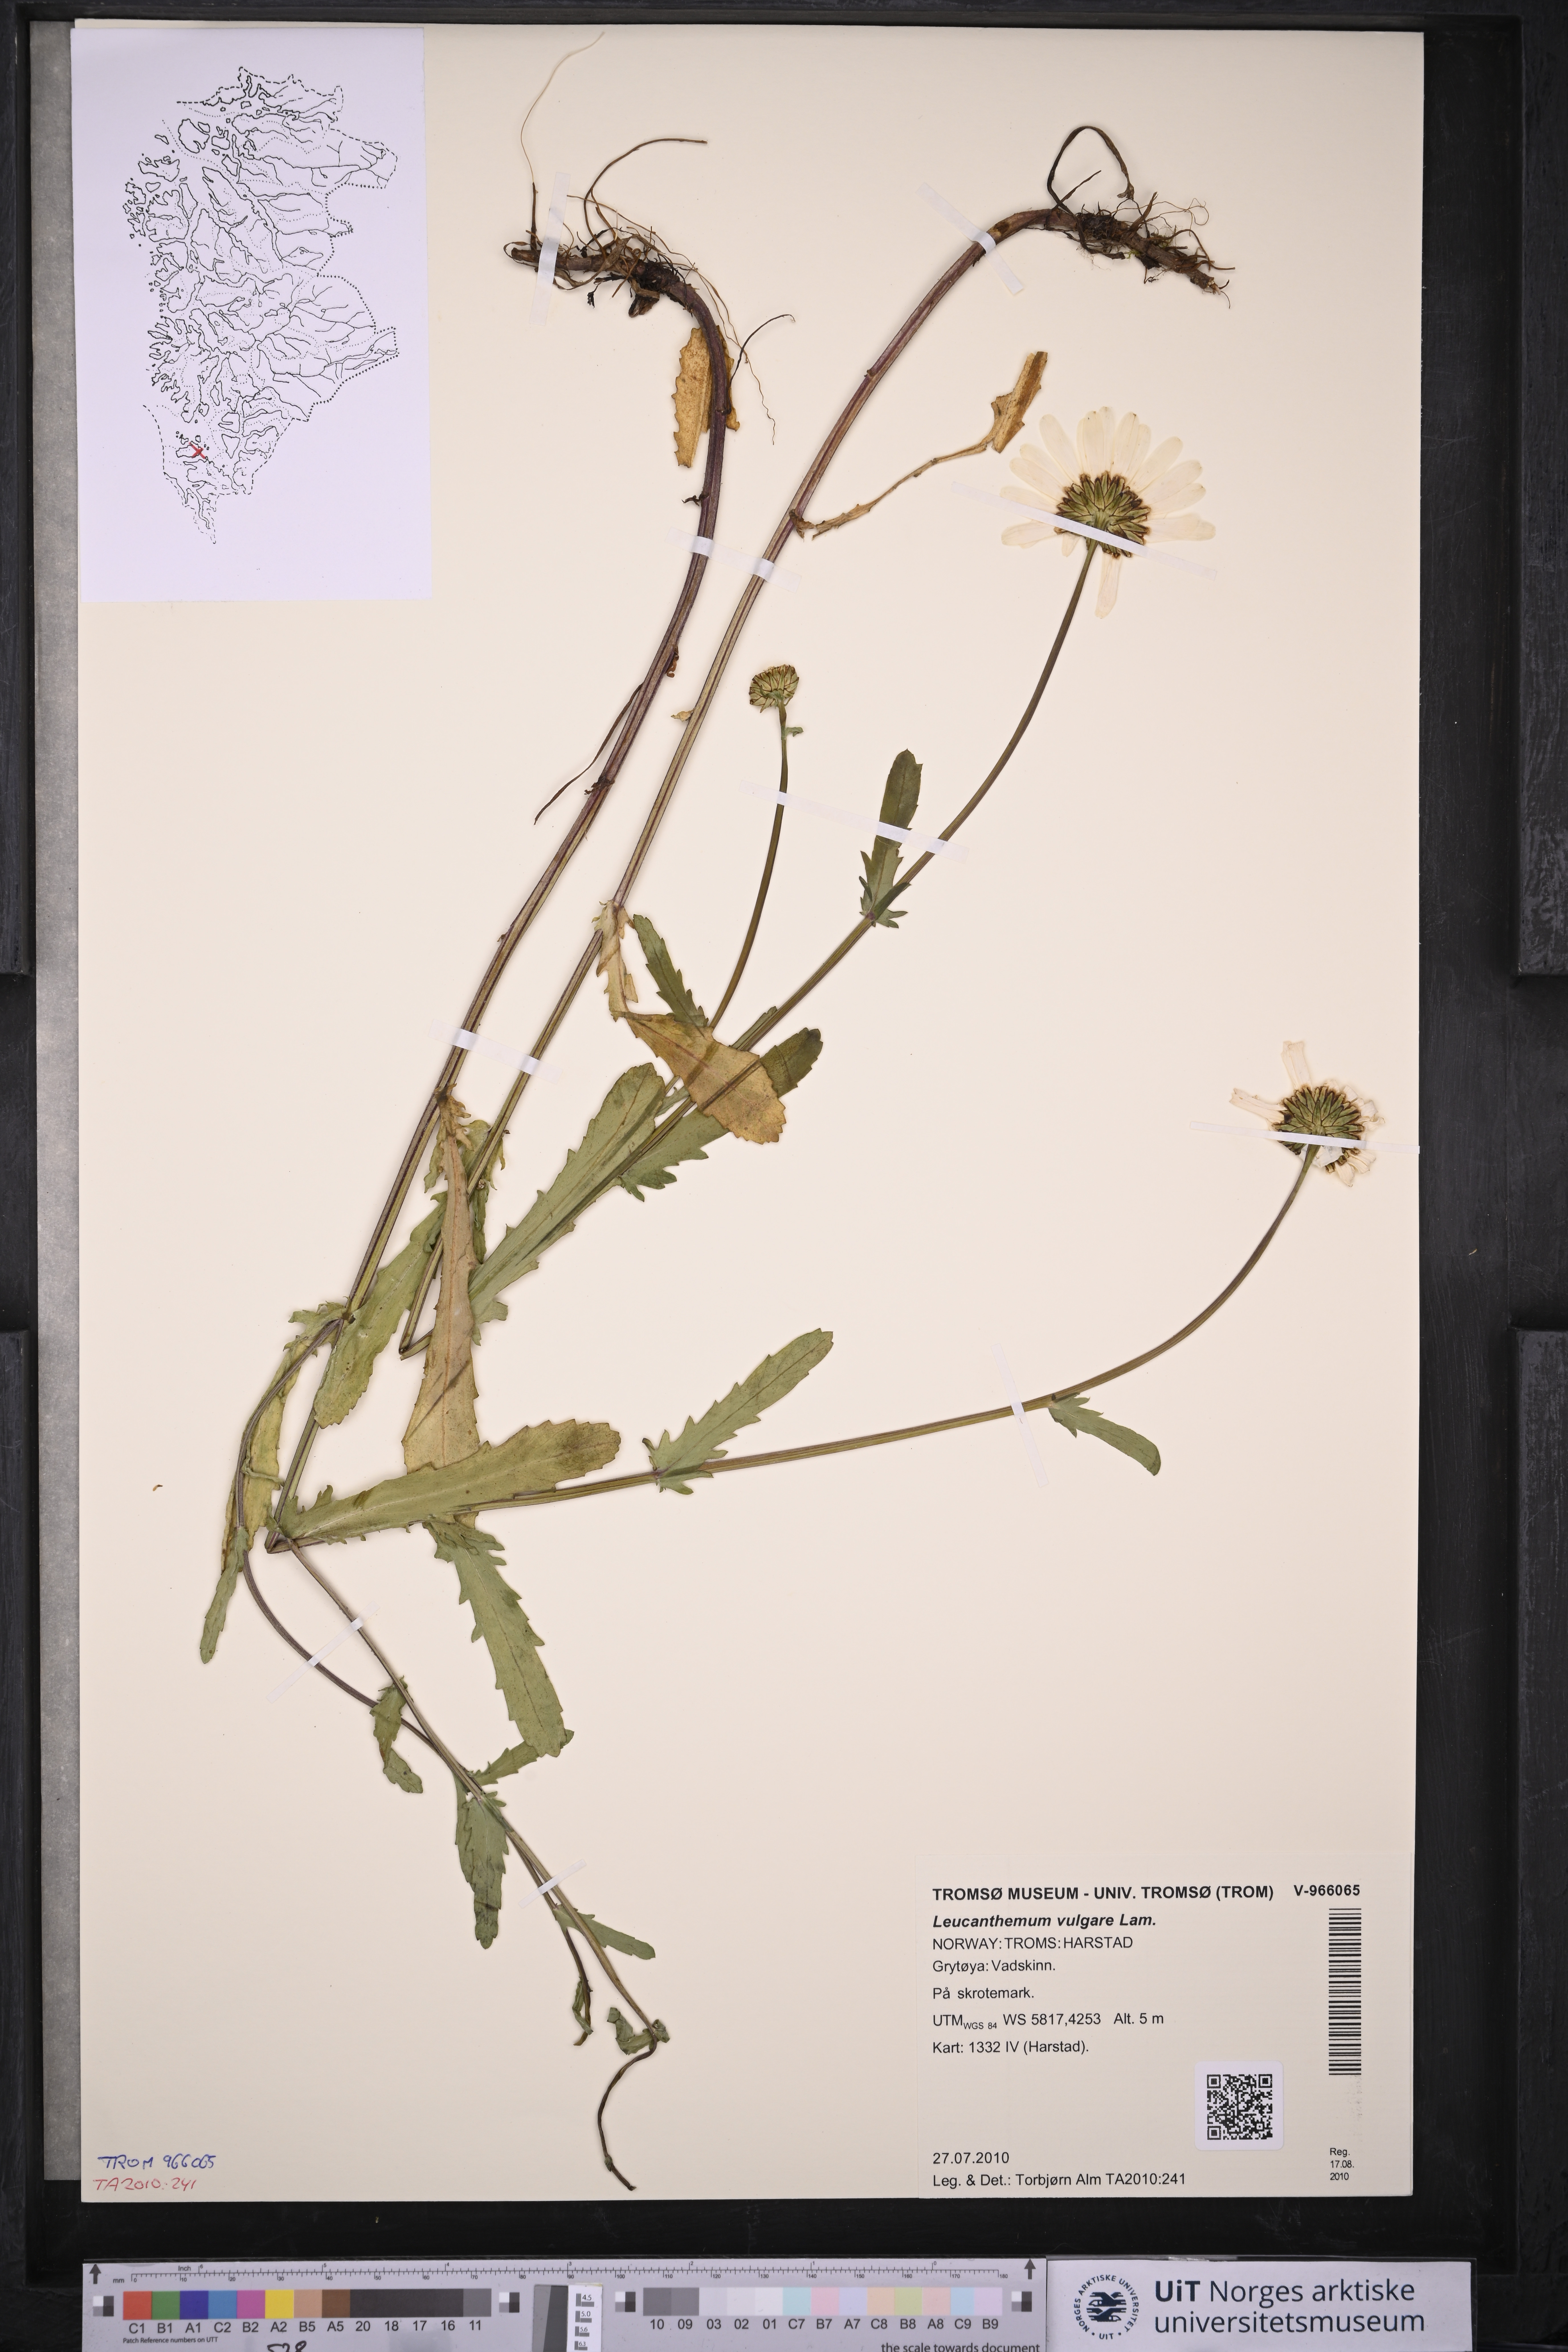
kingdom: Plantae
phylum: Tracheophyta
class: Magnoliopsida
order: Asterales
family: Asteraceae
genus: Leucanthemum
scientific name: Leucanthemum vulgare
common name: Oxeye daisy
